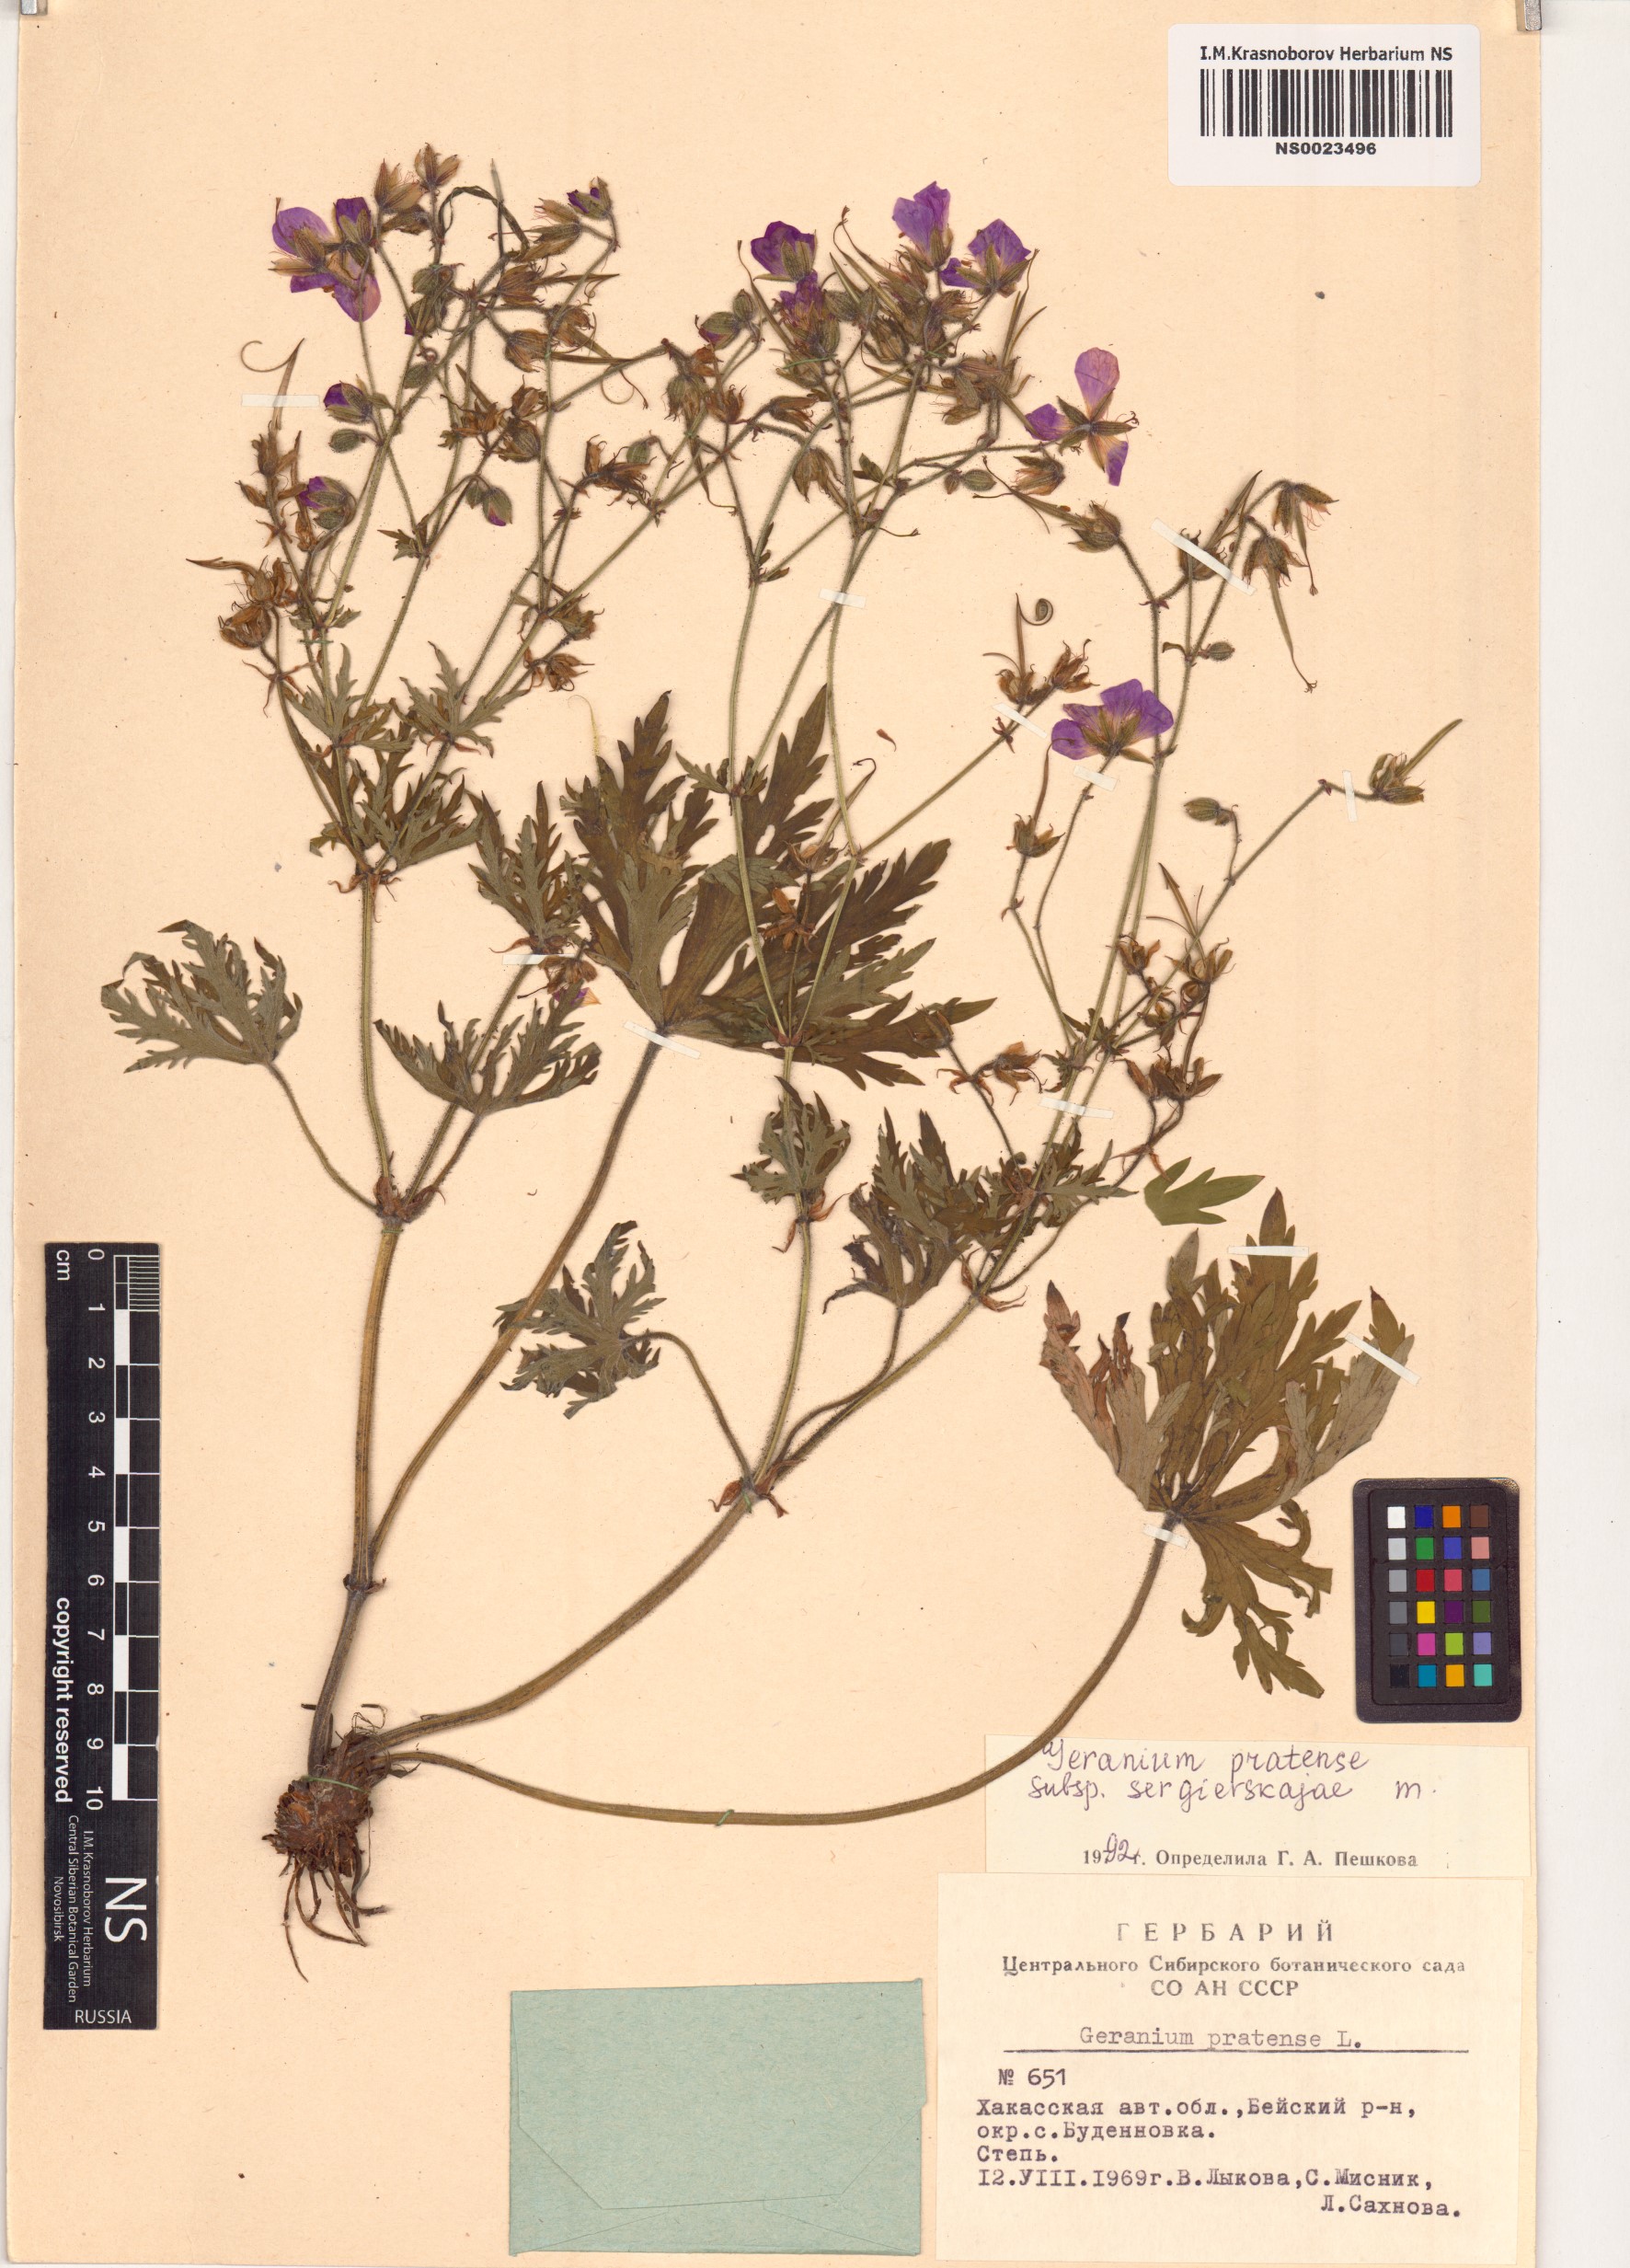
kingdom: Plantae
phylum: Tracheophyta
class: Magnoliopsida
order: Geraniales
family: Geraniaceae
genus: Geranium
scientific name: Geranium pratense
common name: Meadow crane's-bill
